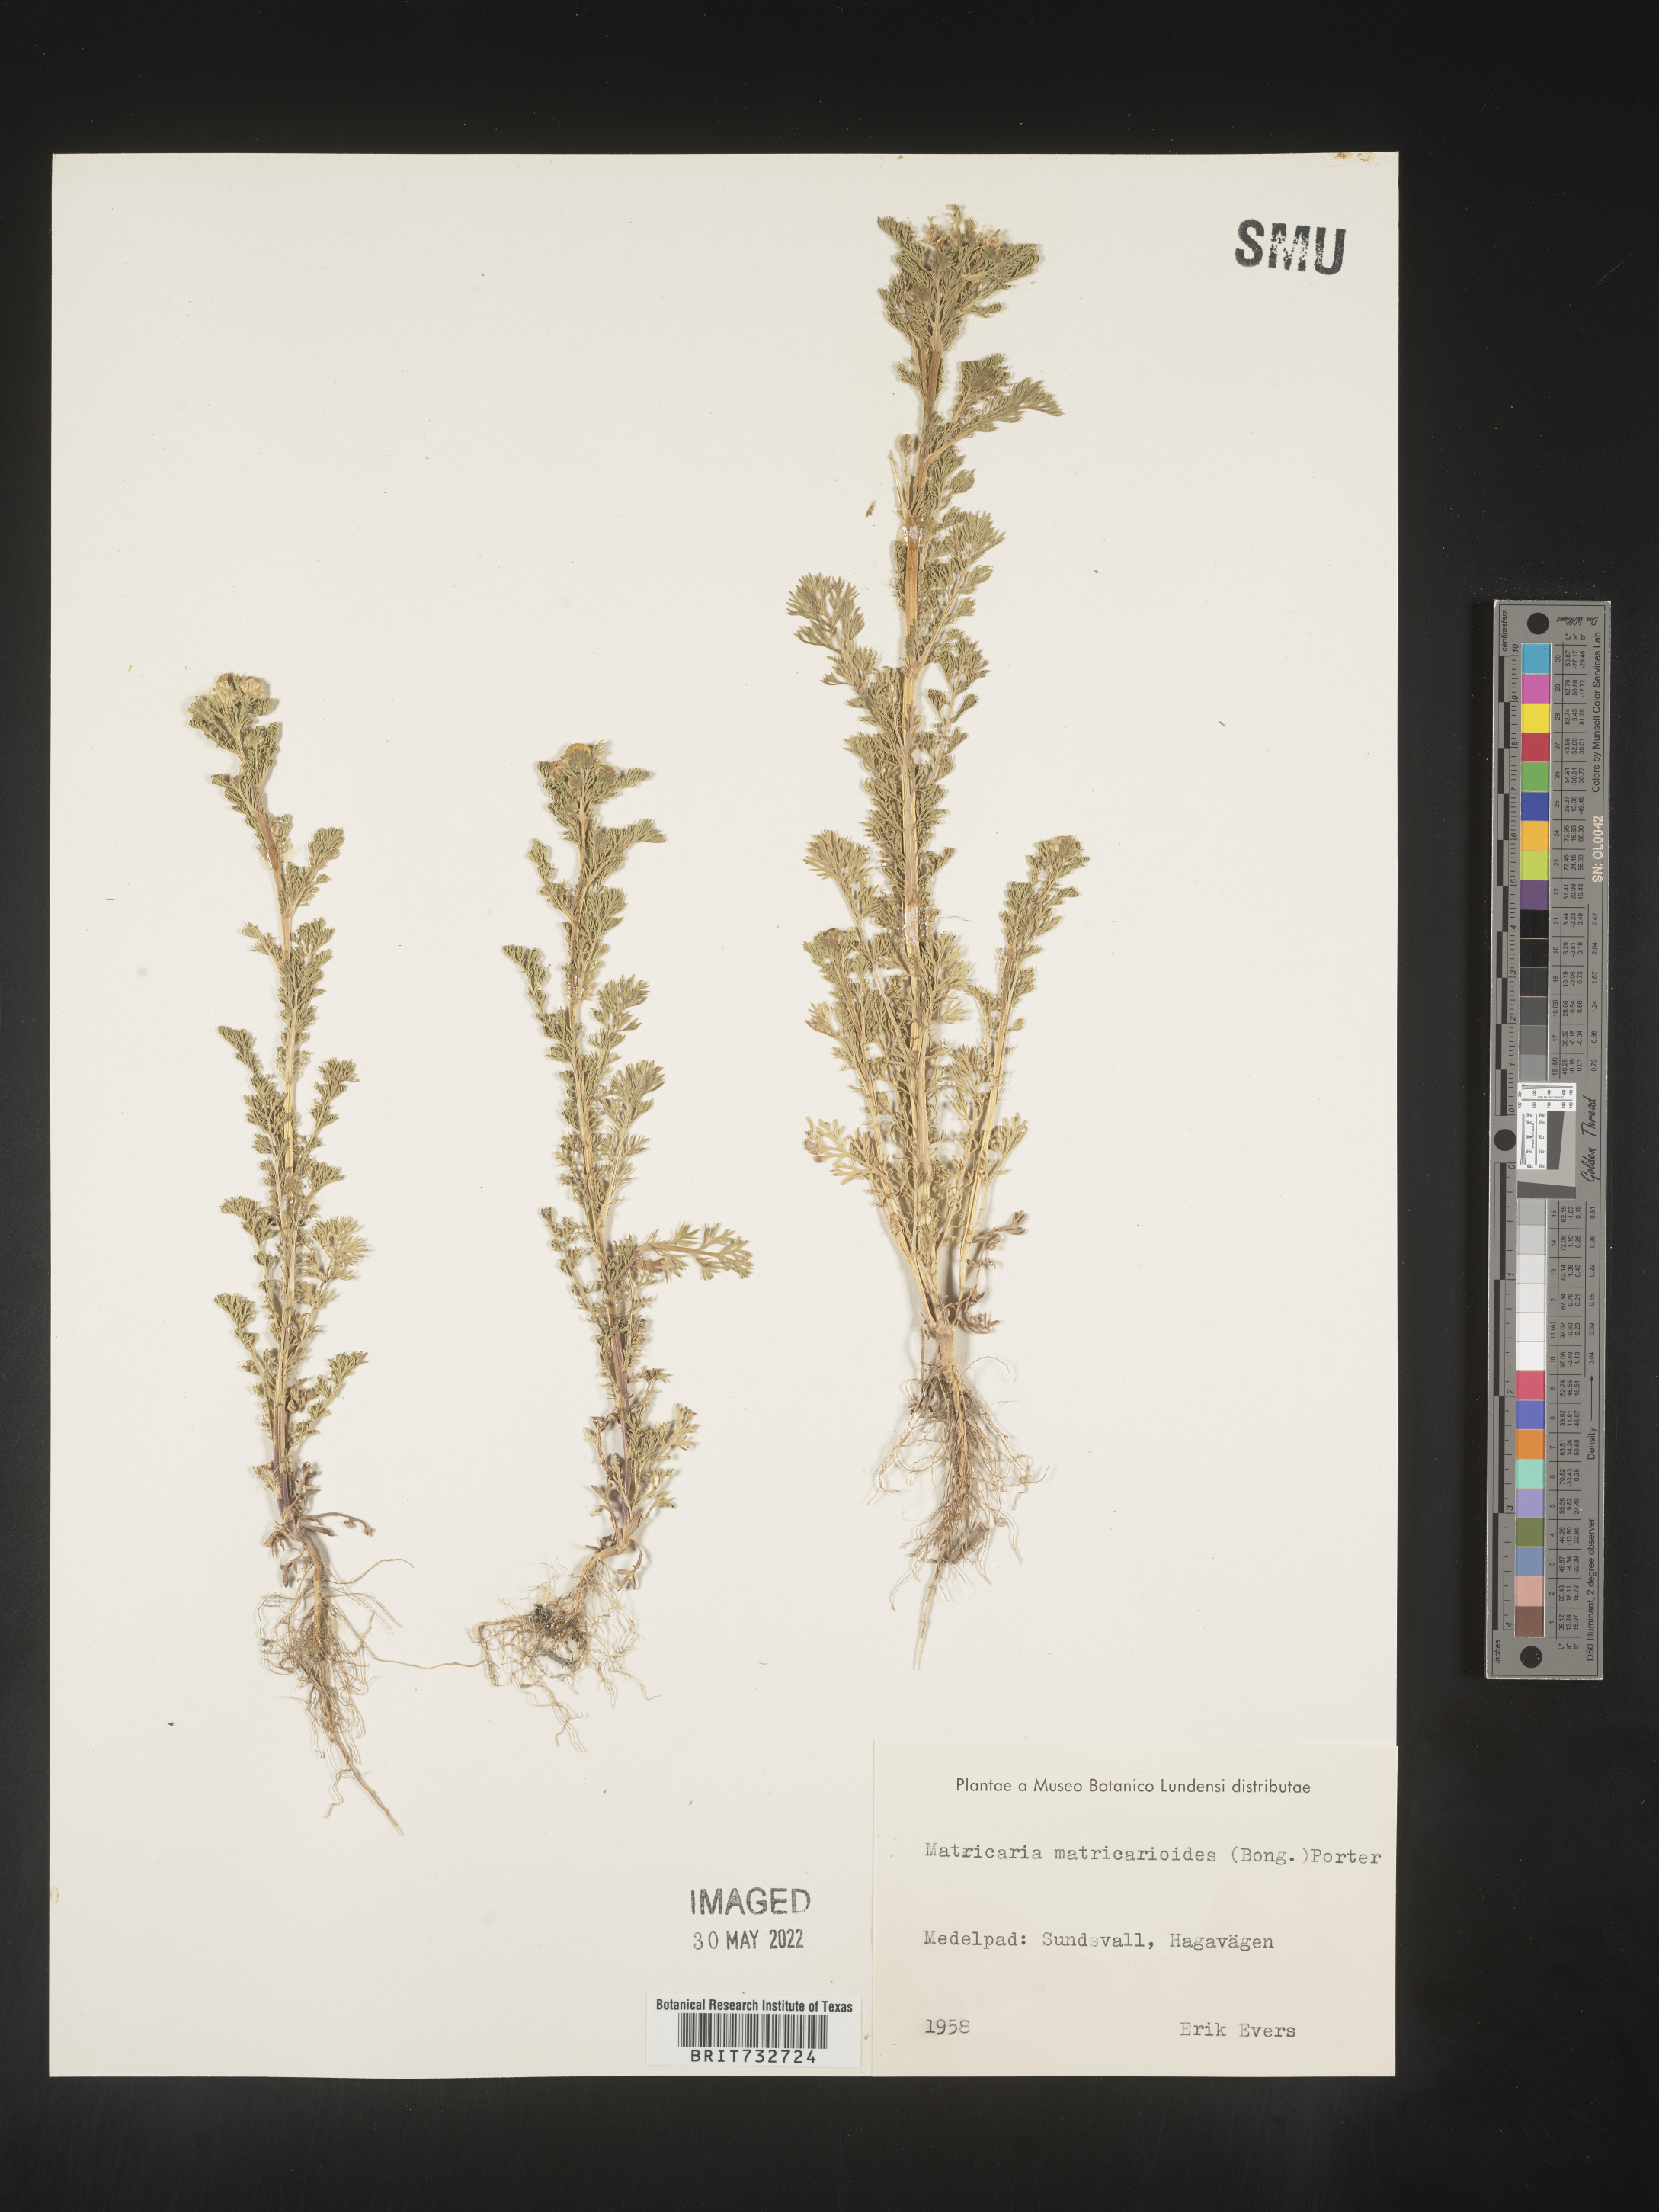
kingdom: Plantae
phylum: Tracheophyta
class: Magnoliopsida
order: Asterales
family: Asteraceae
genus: Matricaria
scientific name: Matricaria
